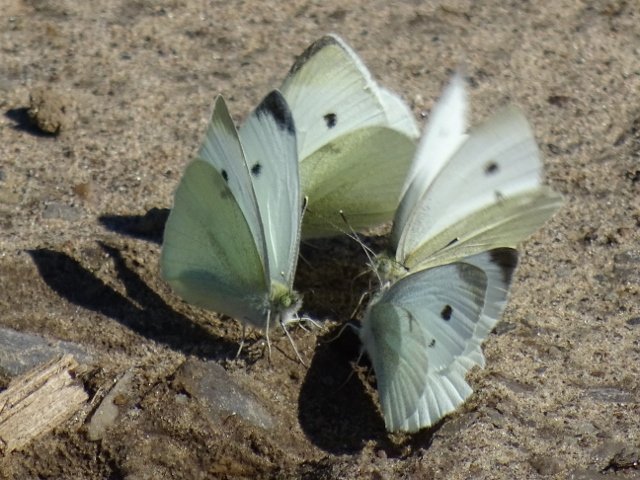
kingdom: Animalia
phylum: Arthropoda
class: Insecta
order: Lepidoptera
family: Pieridae
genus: Pieris
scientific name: Pieris rapae
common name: Cabbage White
